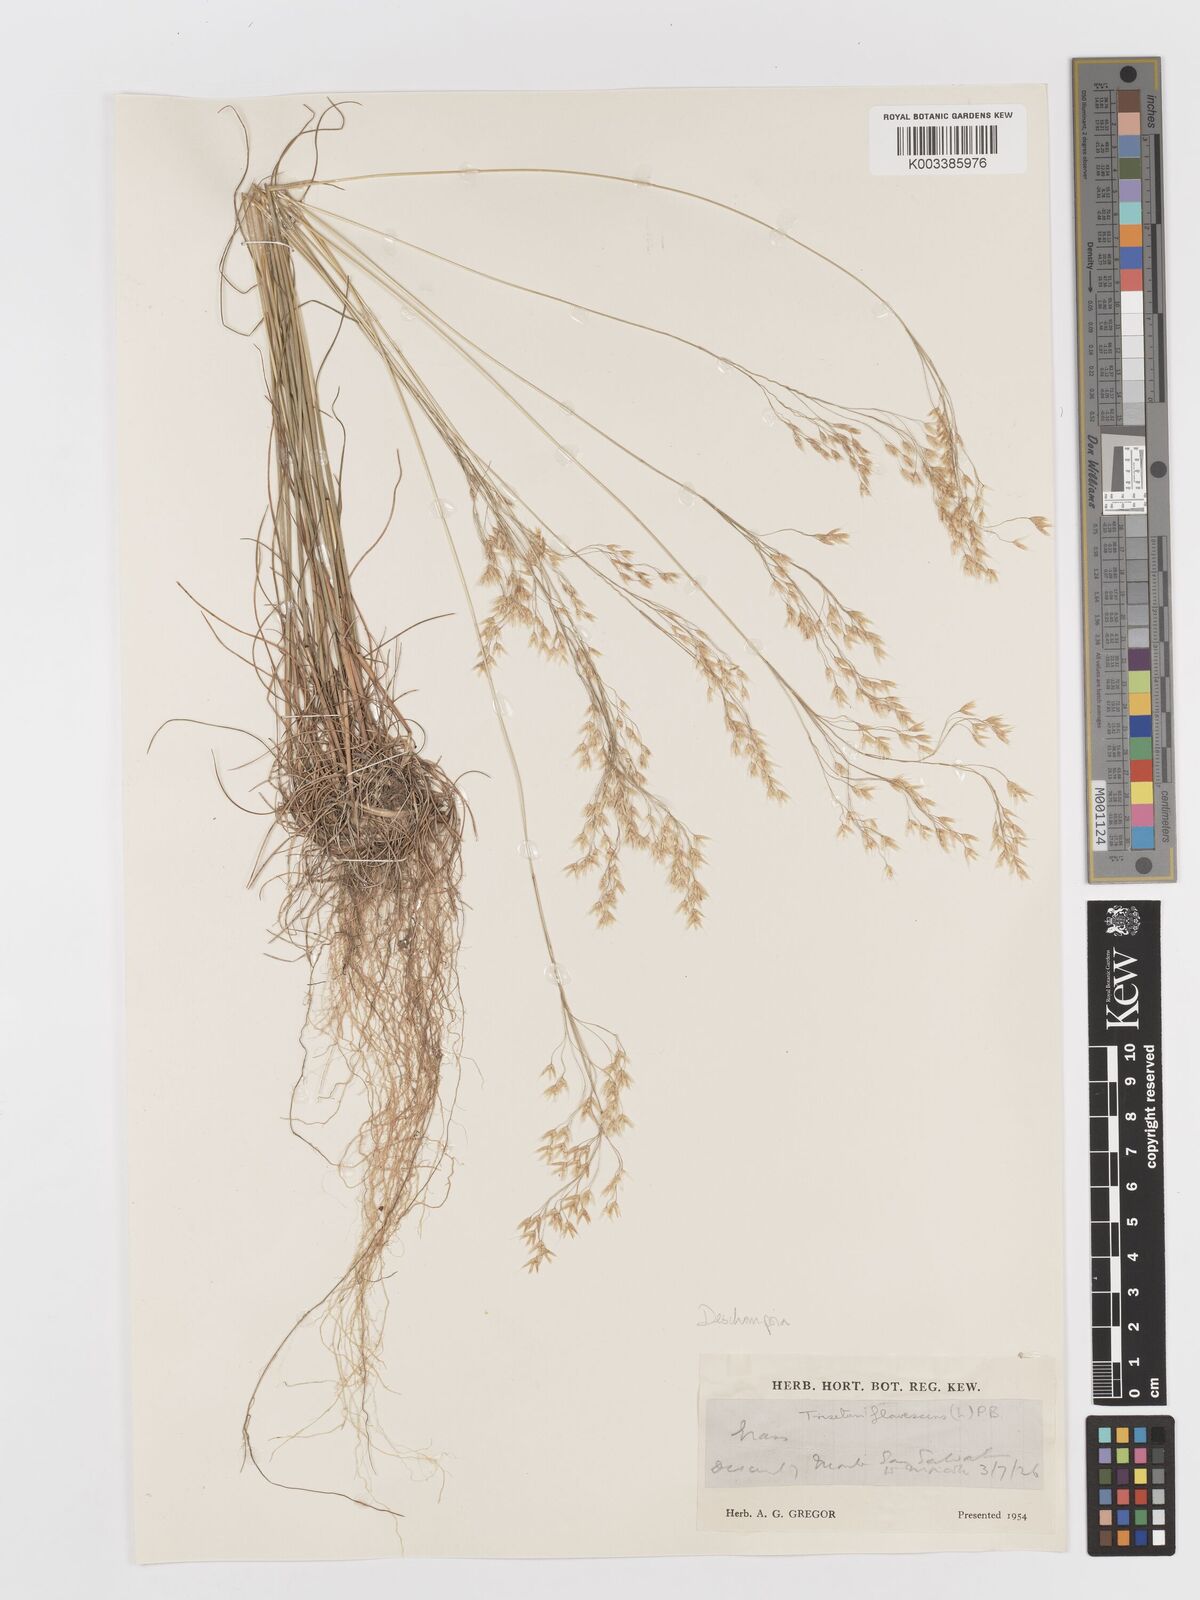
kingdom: Plantae
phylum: Tracheophyta
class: Liliopsida
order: Poales
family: Poaceae
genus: Avenella
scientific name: Avenella flexuosa
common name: Wavy hairgrass
